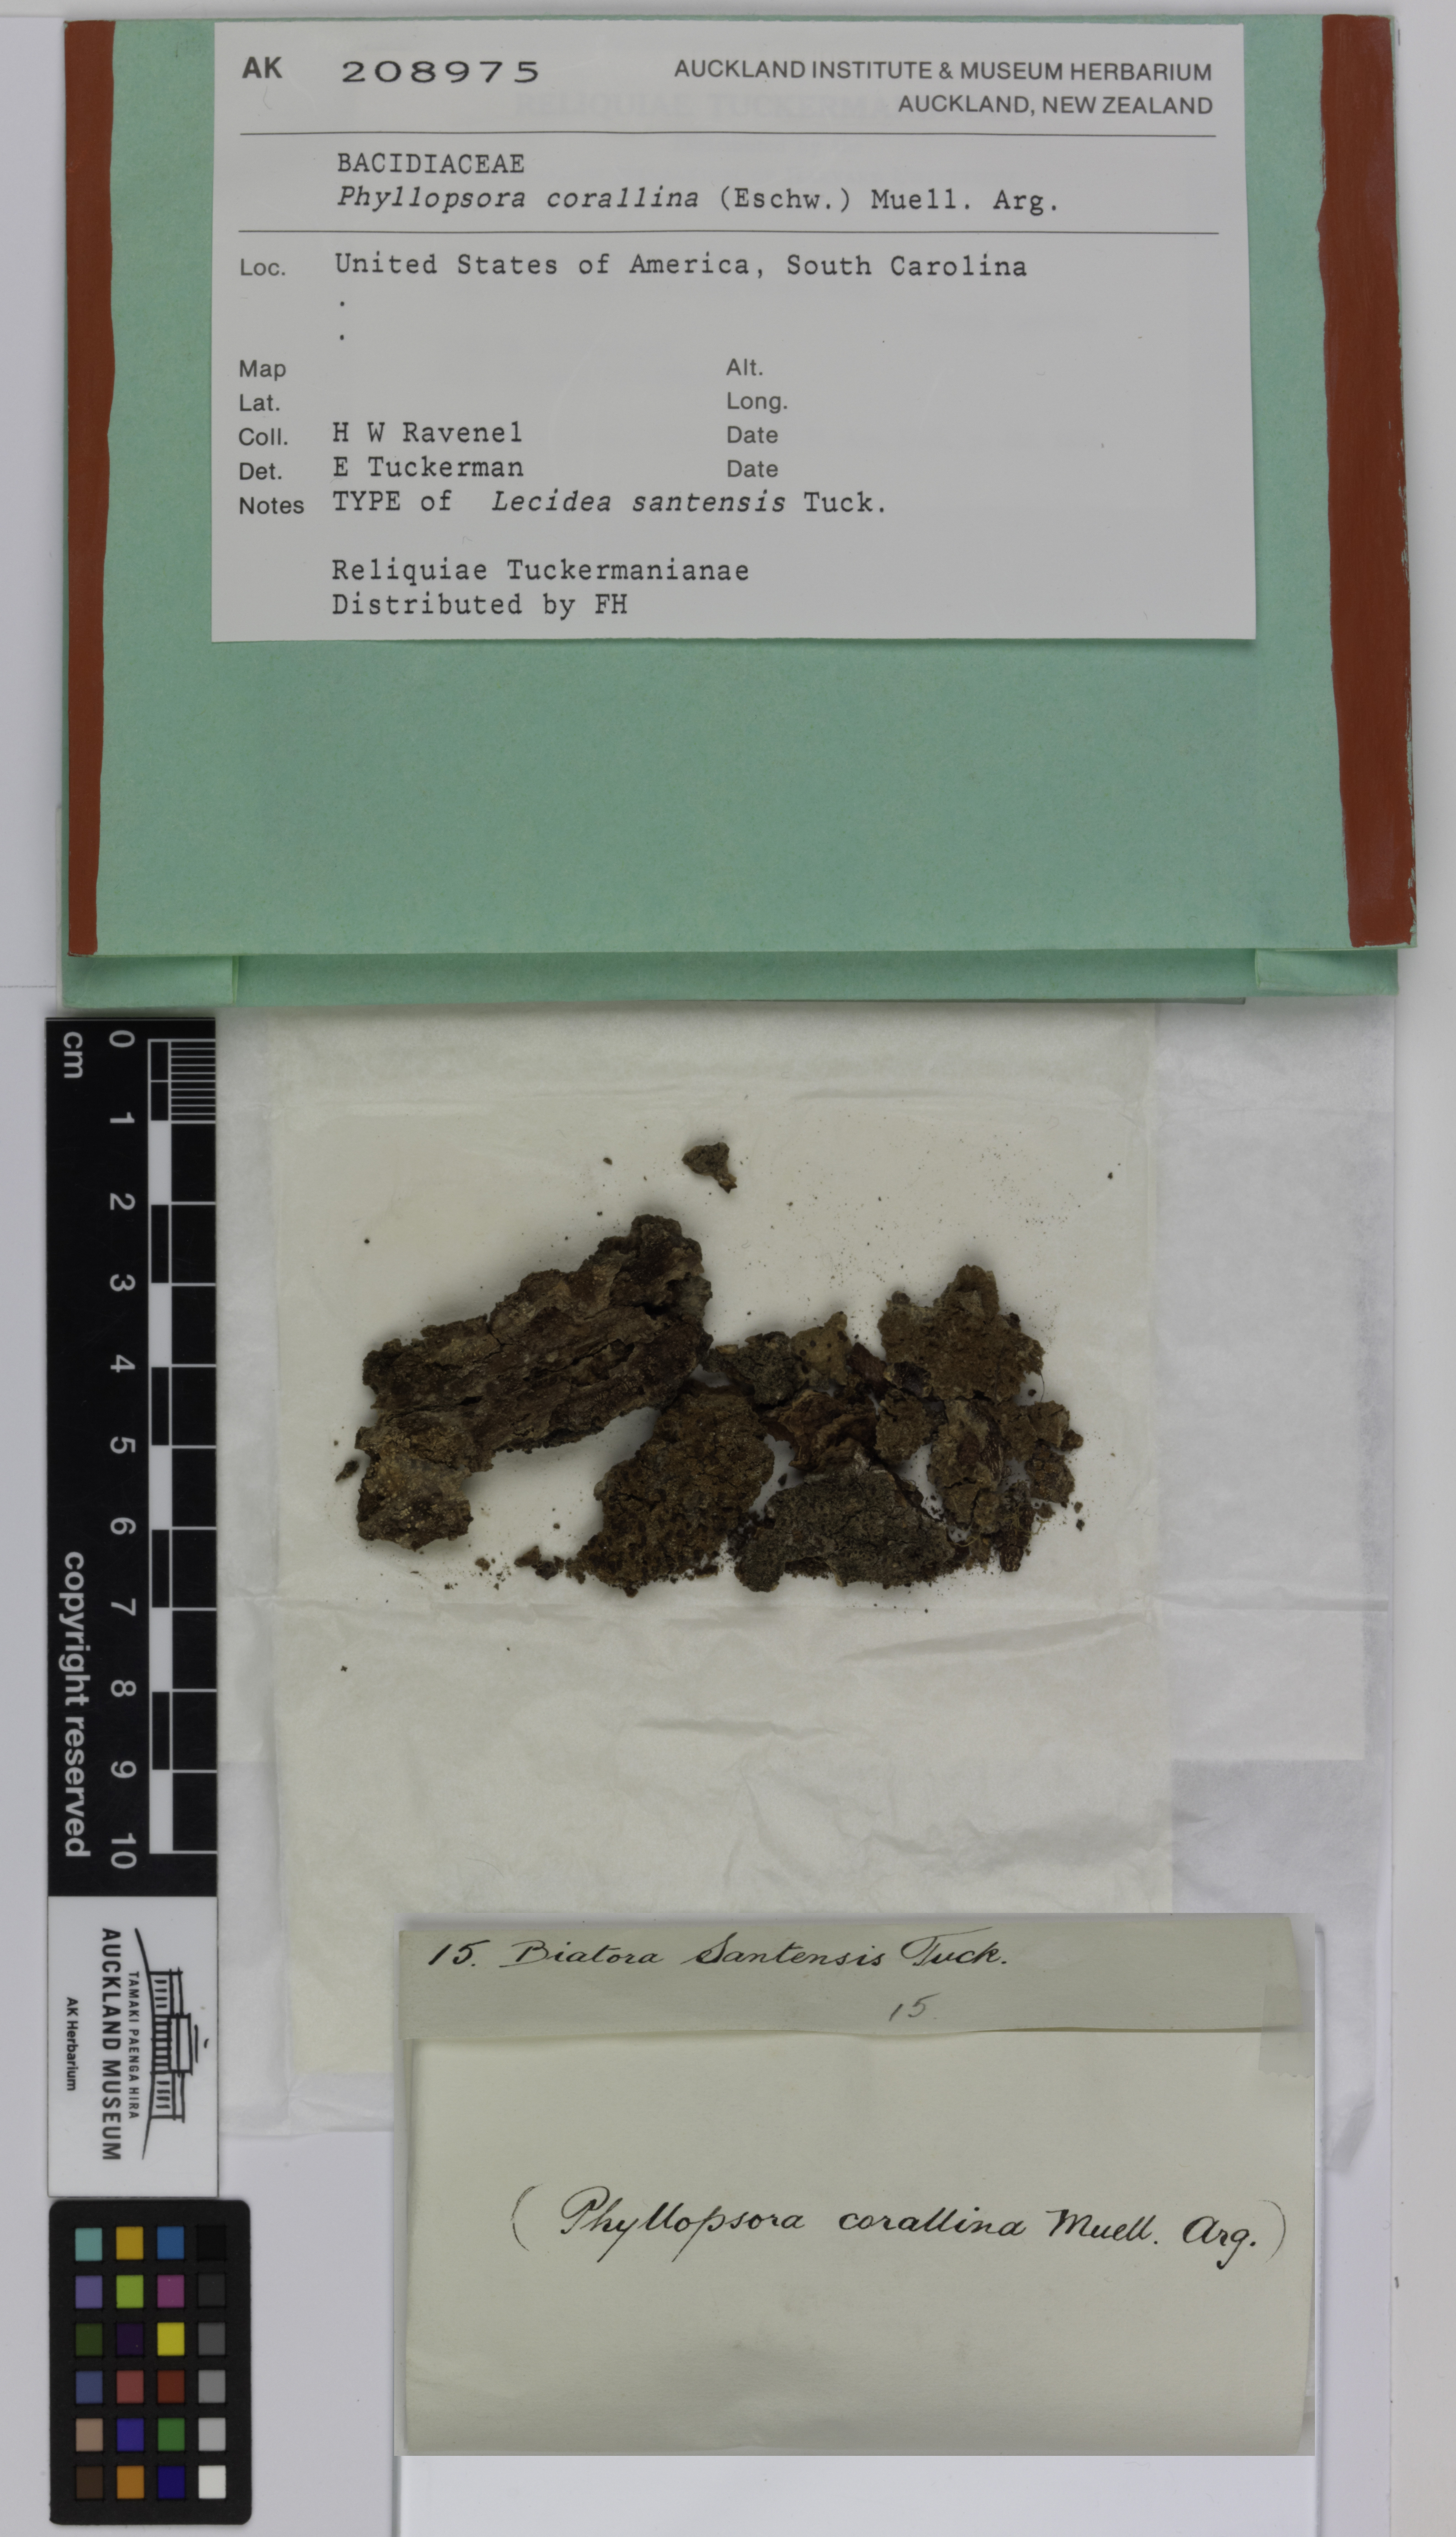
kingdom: Fungi
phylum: Ascomycota
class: Lecanoromycetes
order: Lecanorales
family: Ramalinaceae
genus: Phyllopsora
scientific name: Phyllopsora corallina
